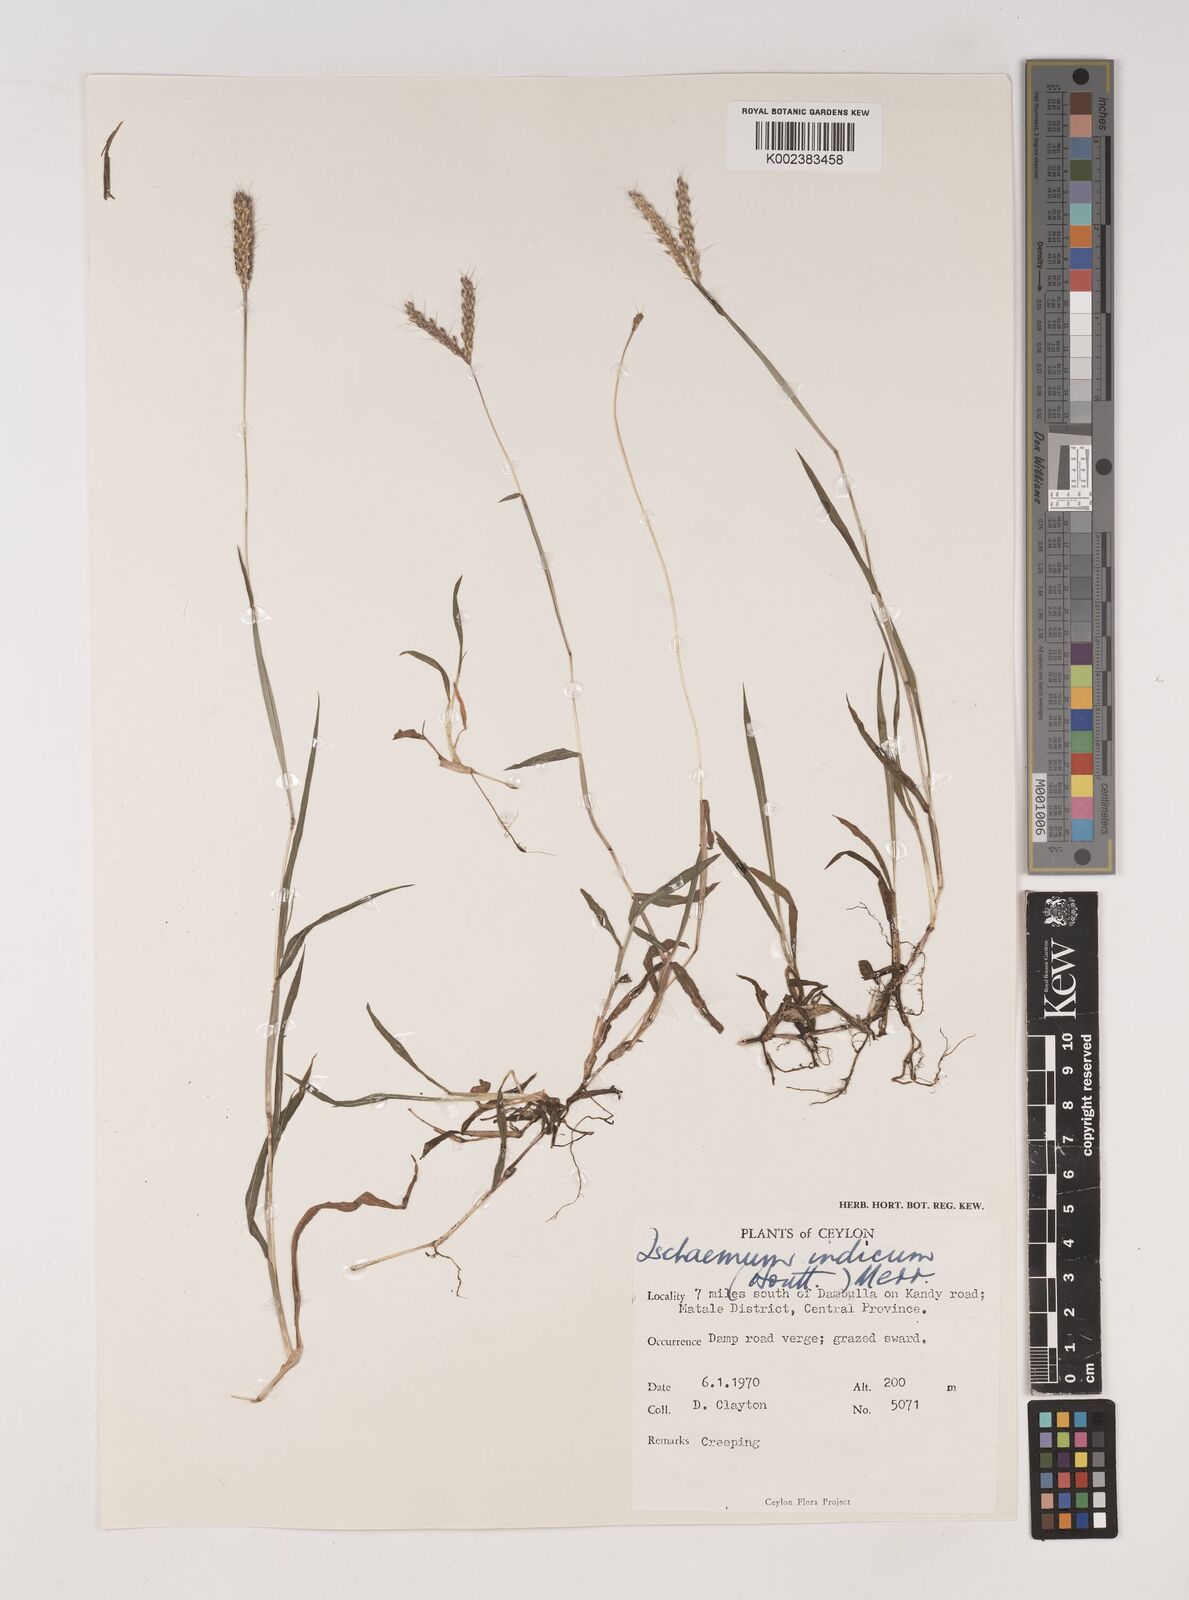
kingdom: Plantae
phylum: Tracheophyta
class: Liliopsida
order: Poales
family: Poaceae
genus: Polytrias
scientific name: Polytrias indica
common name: Indian murainagrass
